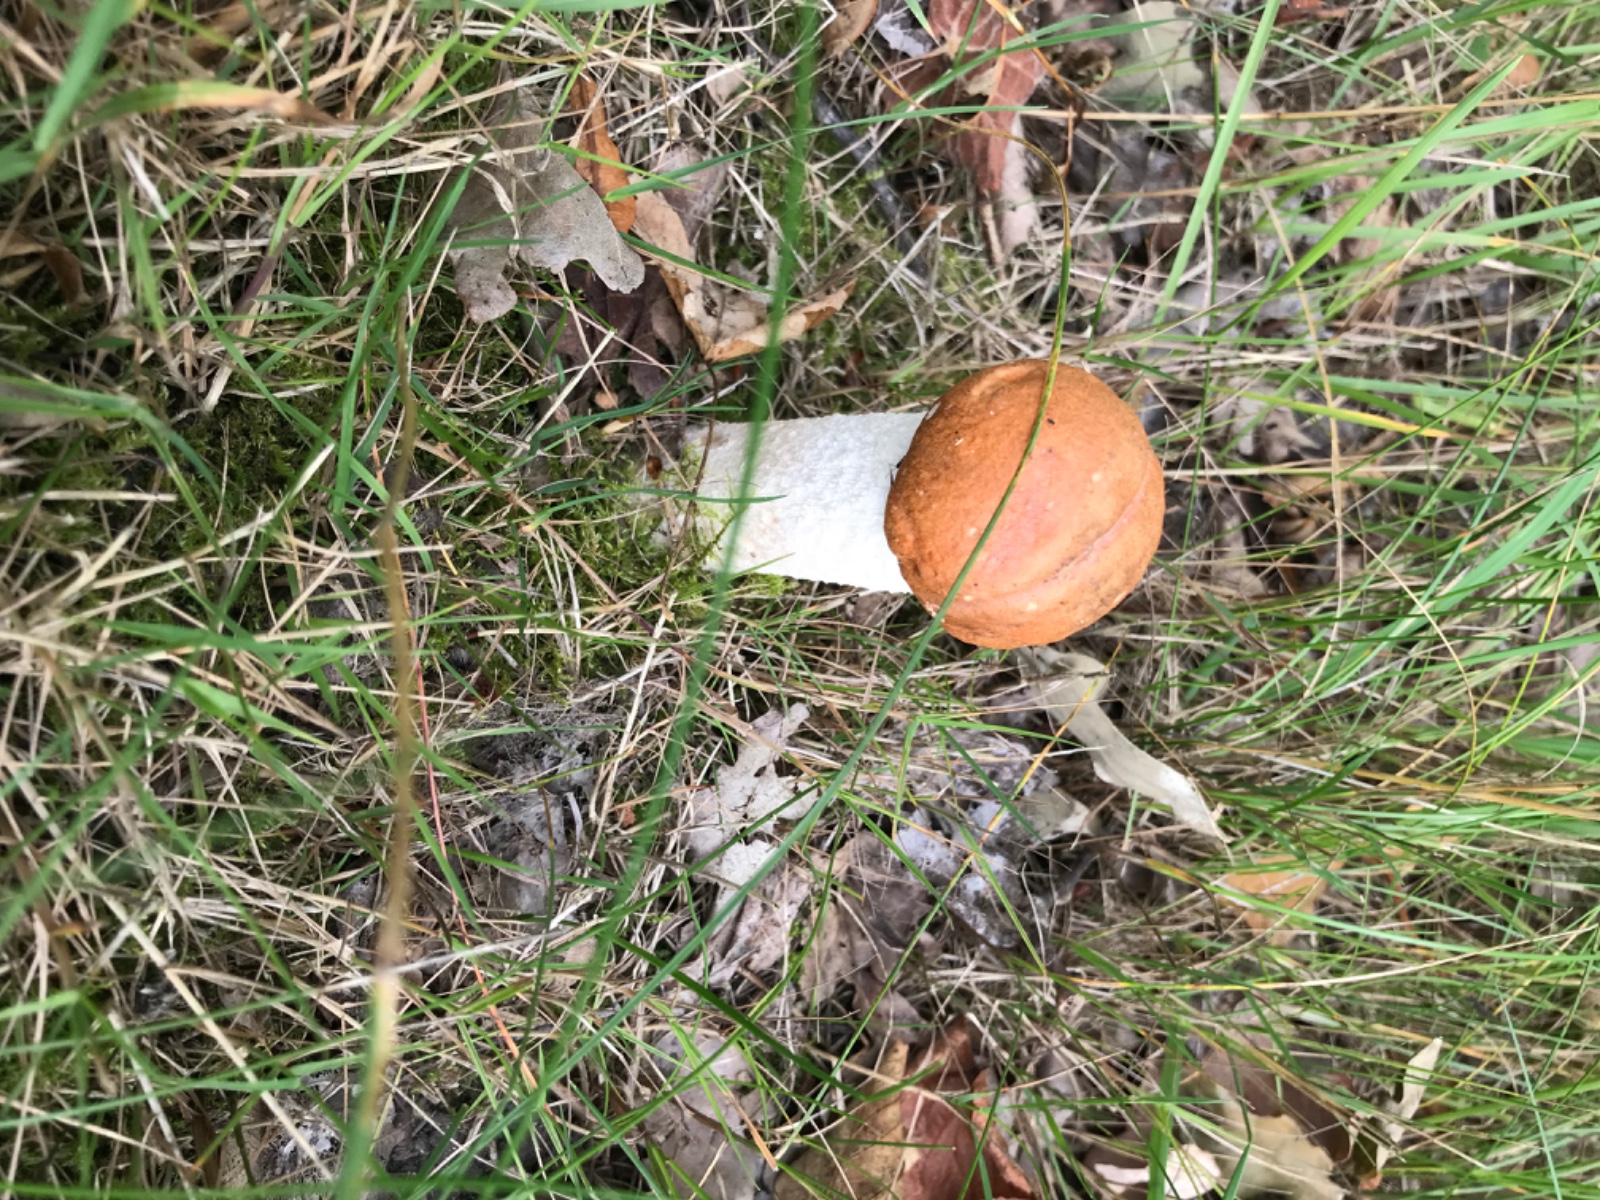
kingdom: Fungi
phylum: Basidiomycota
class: Agaricomycetes
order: Boletales
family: Boletaceae
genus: Leccinum
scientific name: Leccinum albostipitatum
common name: aspe-skælrørhat
